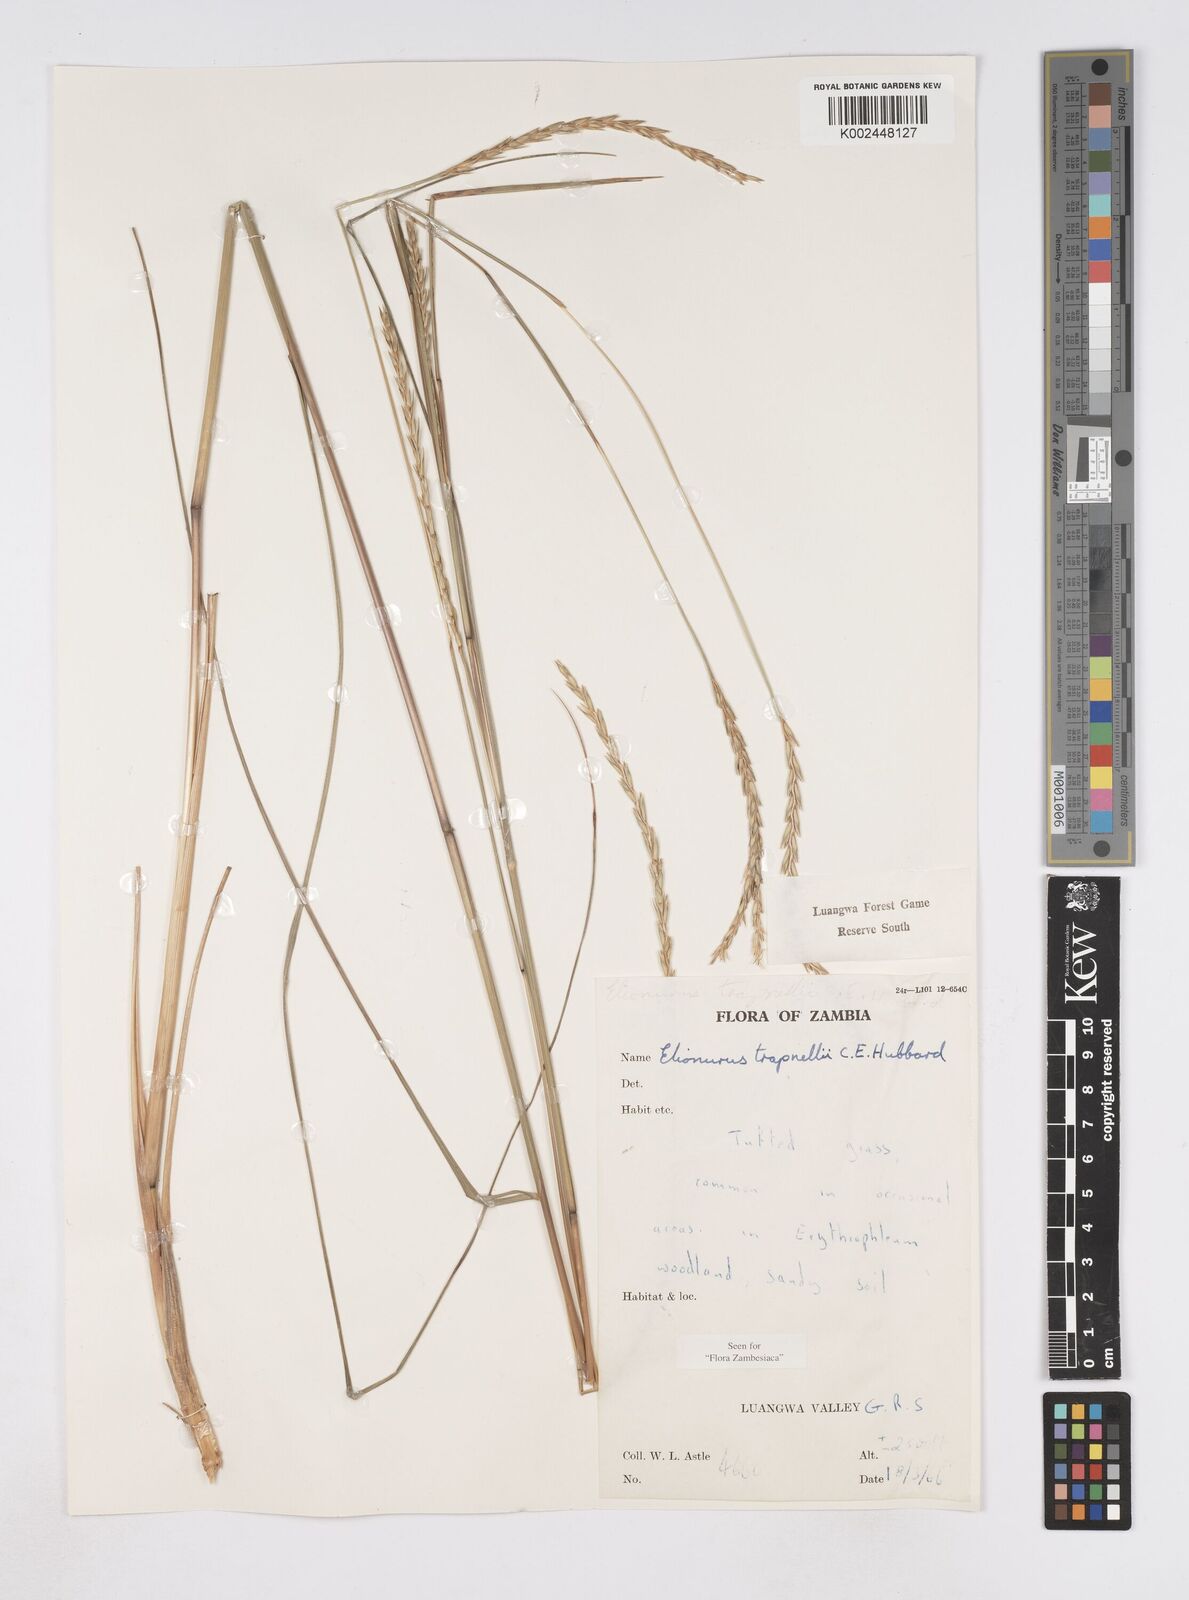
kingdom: Plantae
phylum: Tracheophyta
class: Liliopsida
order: Poales
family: Poaceae
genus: Elionurus
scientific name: Elionurus tripsacoides
